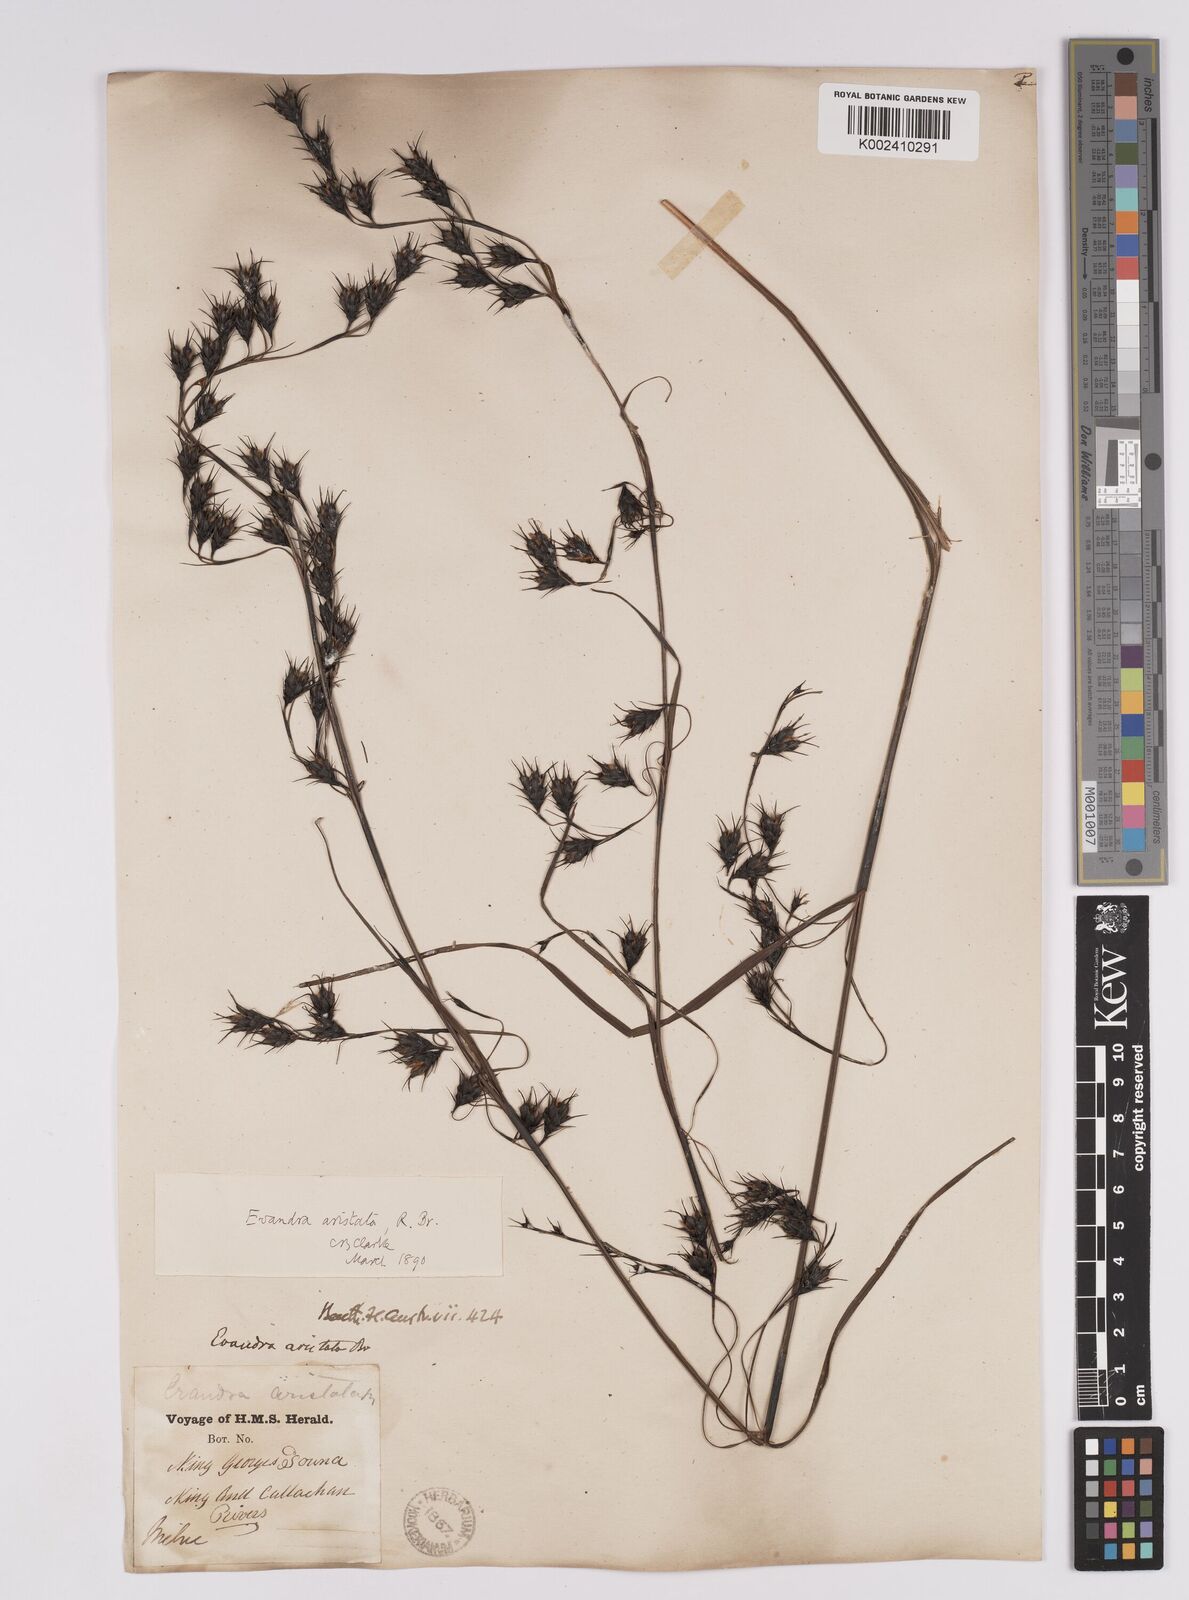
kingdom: Plantae
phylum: Tracheophyta
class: Liliopsida
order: Poales
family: Cyperaceae
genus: Evandra
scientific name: Evandra aristata
